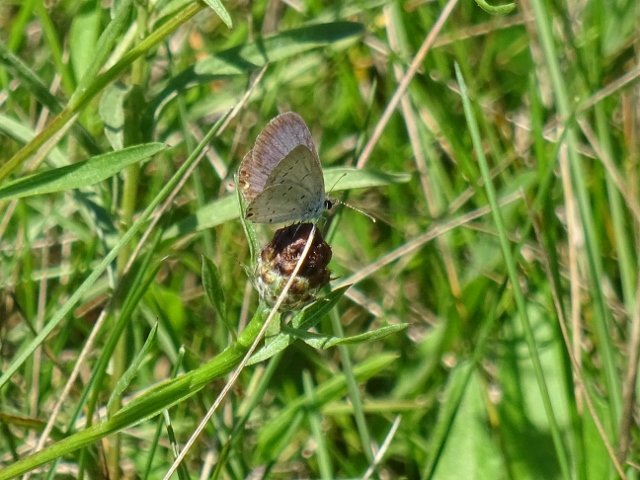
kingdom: Animalia
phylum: Arthropoda
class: Insecta
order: Lepidoptera
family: Lycaenidae
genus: Elkalyce
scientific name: Elkalyce comyntas
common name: Eastern Tailed-Blue
